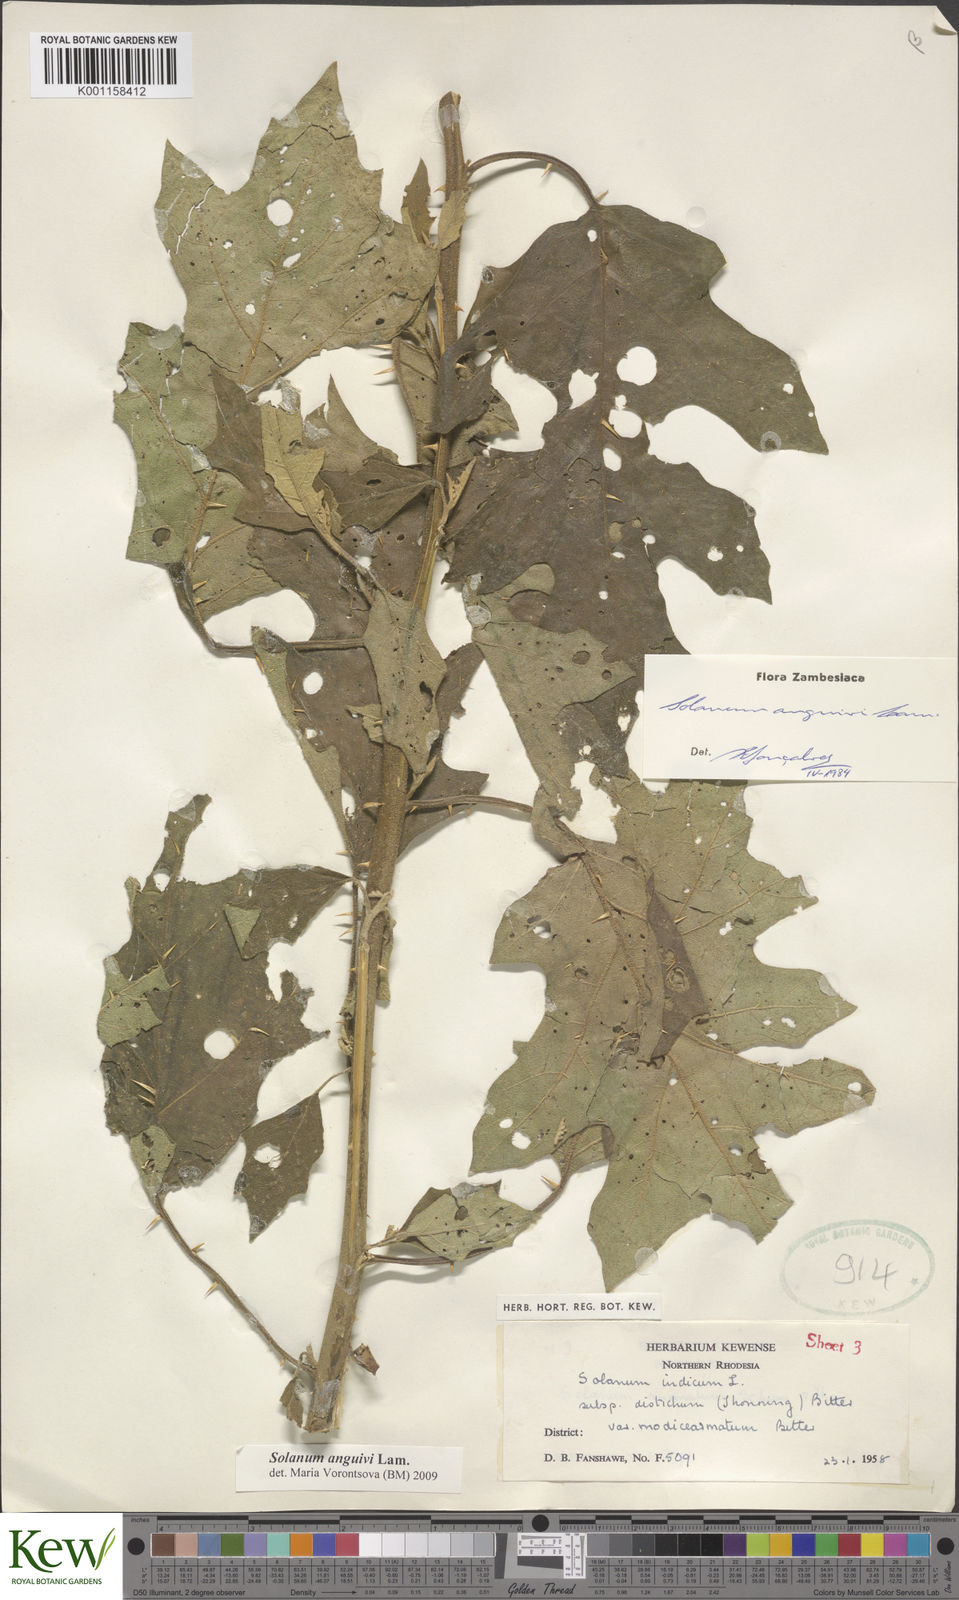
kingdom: Plantae
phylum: Tracheophyta
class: Magnoliopsida
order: Solanales
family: Solanaceae
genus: Solanum
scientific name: Solanum anguivi
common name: Forest bitterberry
